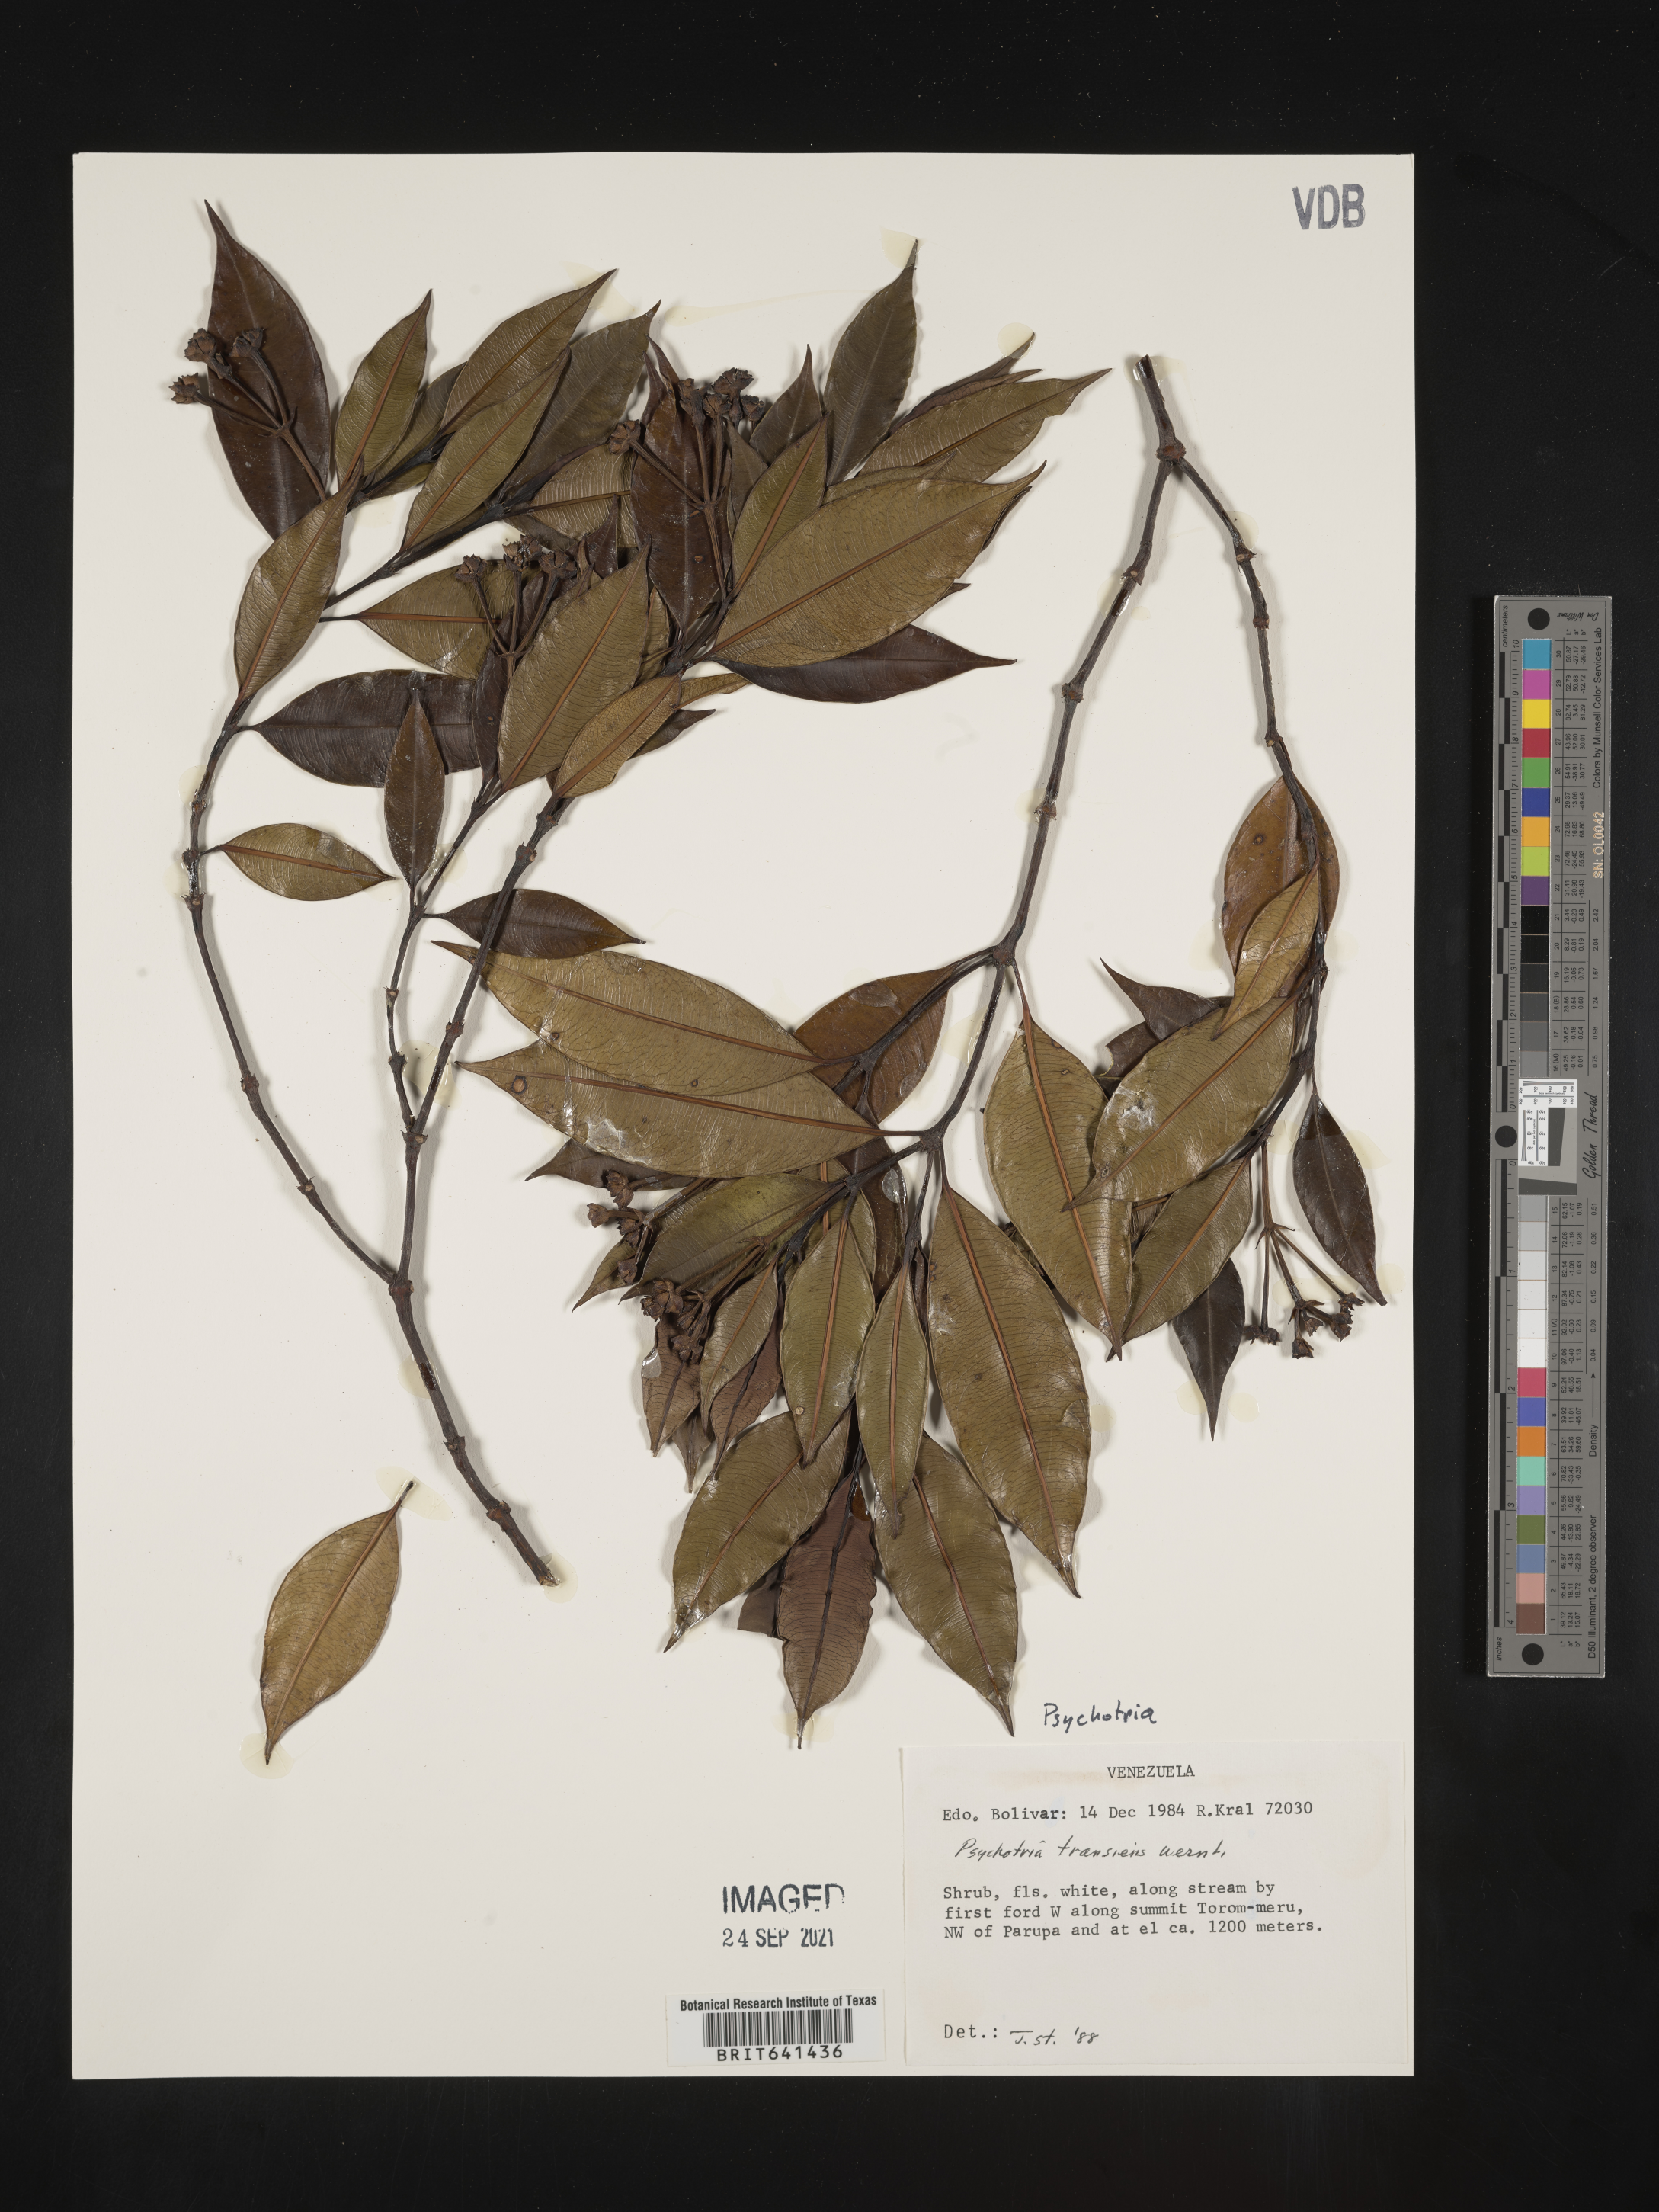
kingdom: Plantae
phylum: Tracheophyta
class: Magnoliopsida
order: Gentianales
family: Rubiaceae
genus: Psychotria
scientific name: Psychotria
